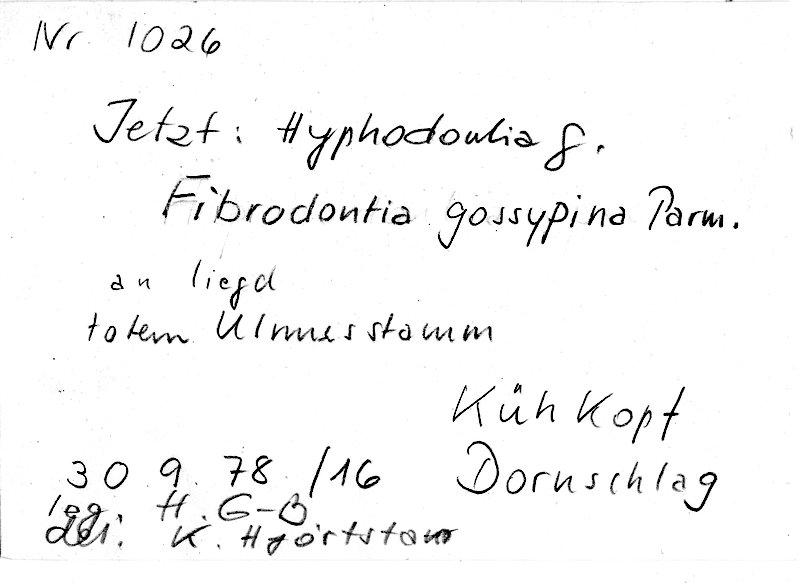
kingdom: Plantae
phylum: Tracheophyta
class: Magnoliopsida
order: Rosales
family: Ulmaceae
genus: Ulmus
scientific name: Ulmus
